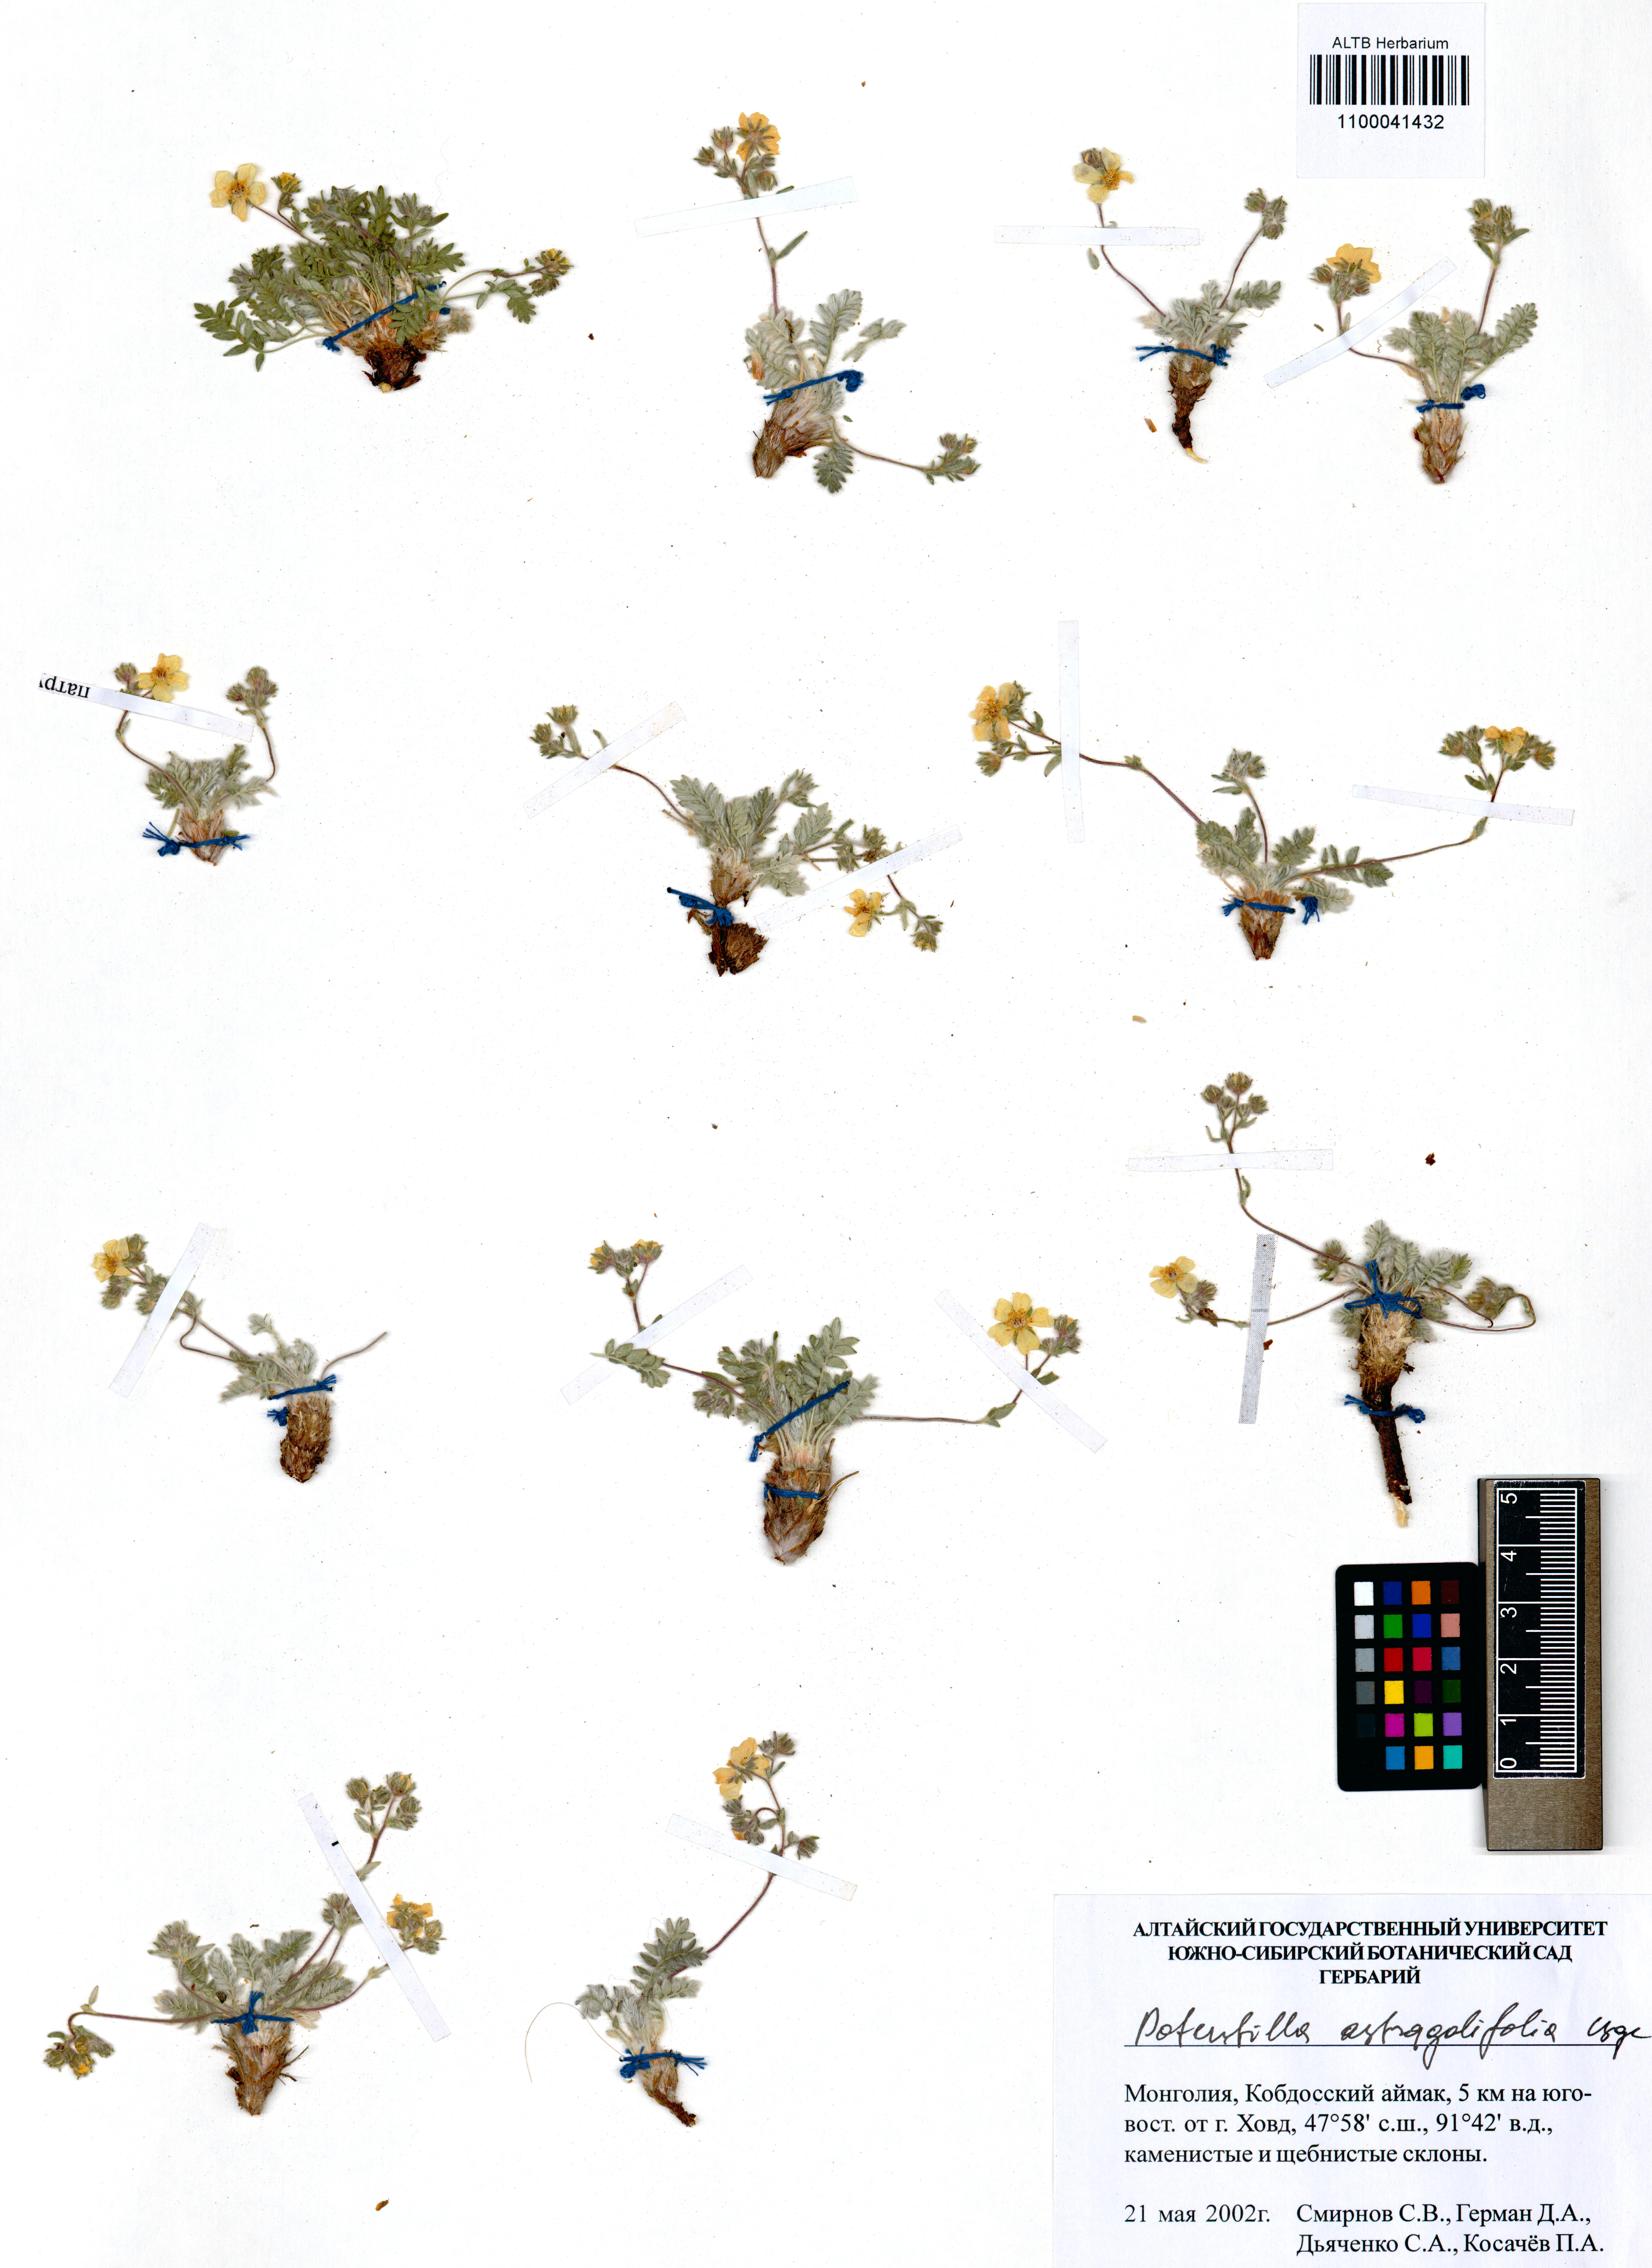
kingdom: Plantae
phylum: Tracheophyta
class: Magnoliopsida
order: Rosales
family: Rosaceae
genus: Potentilla
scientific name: Potentilla astragalifolia
